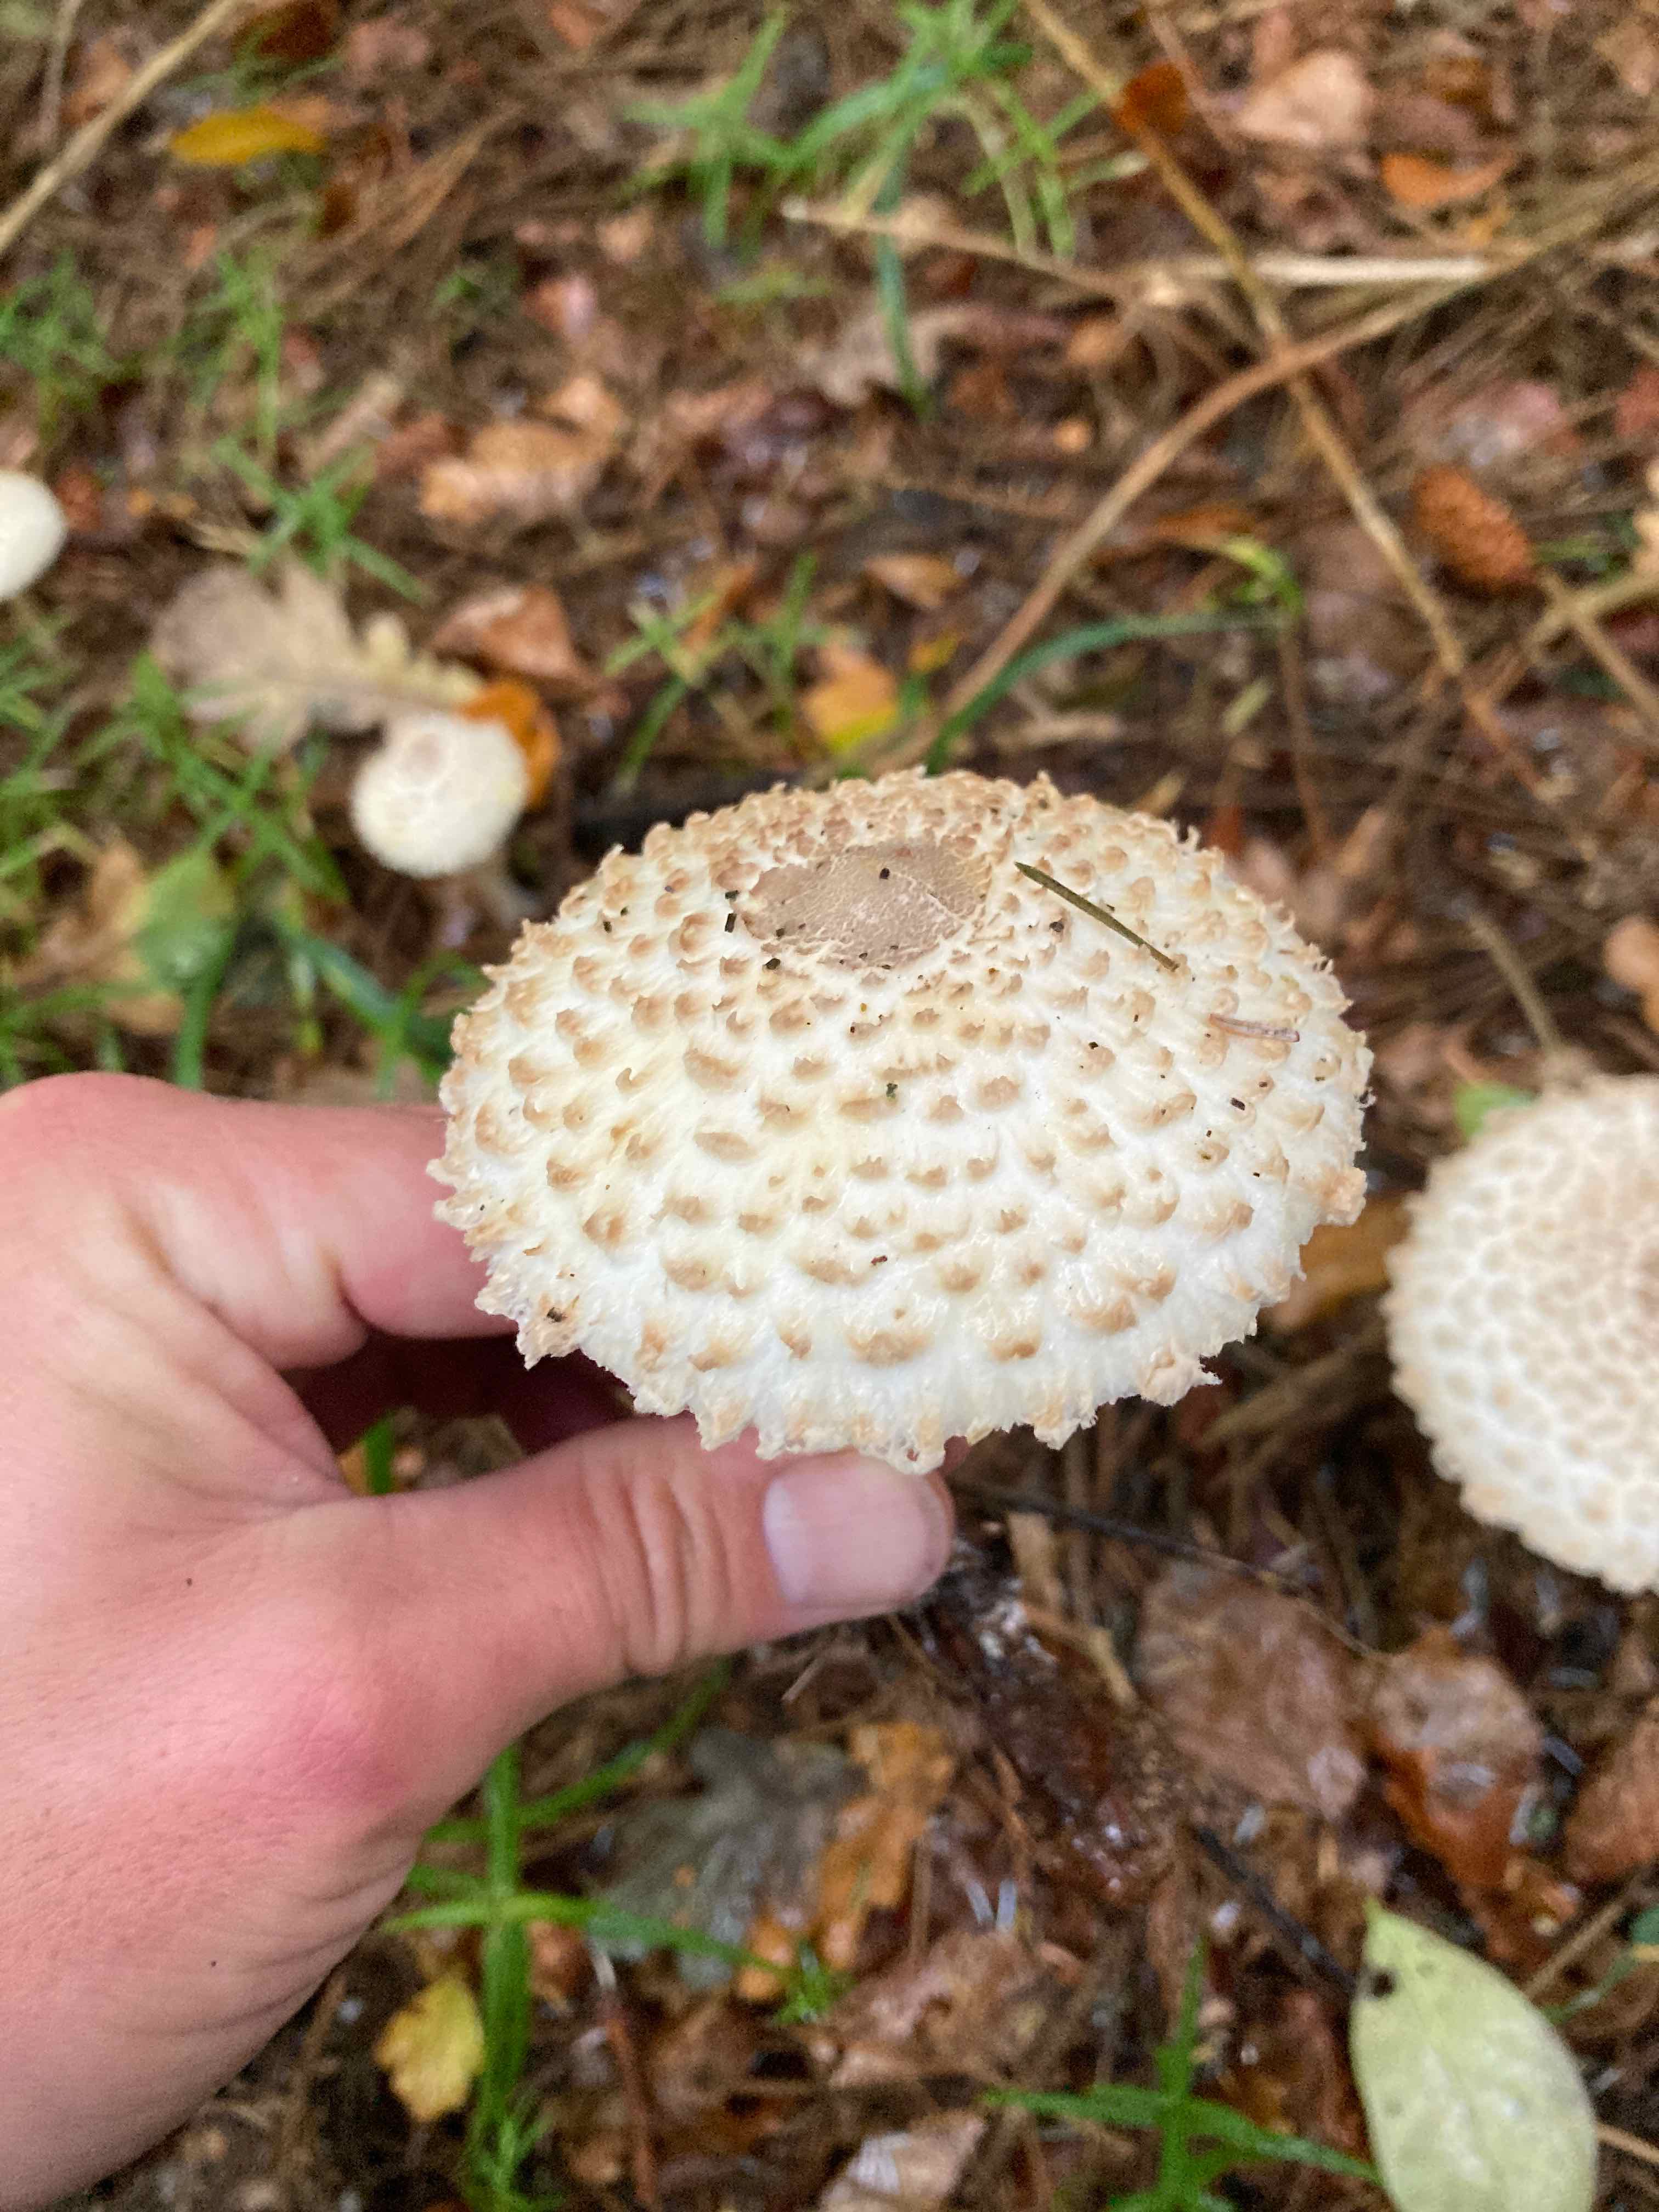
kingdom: Fungi
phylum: Basidiomycota
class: Agaricomycetes
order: Agaricales
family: Agaricaceae
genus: Leucoagaricus
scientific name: Leucoagaricus nympharum
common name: gran-silkehat
